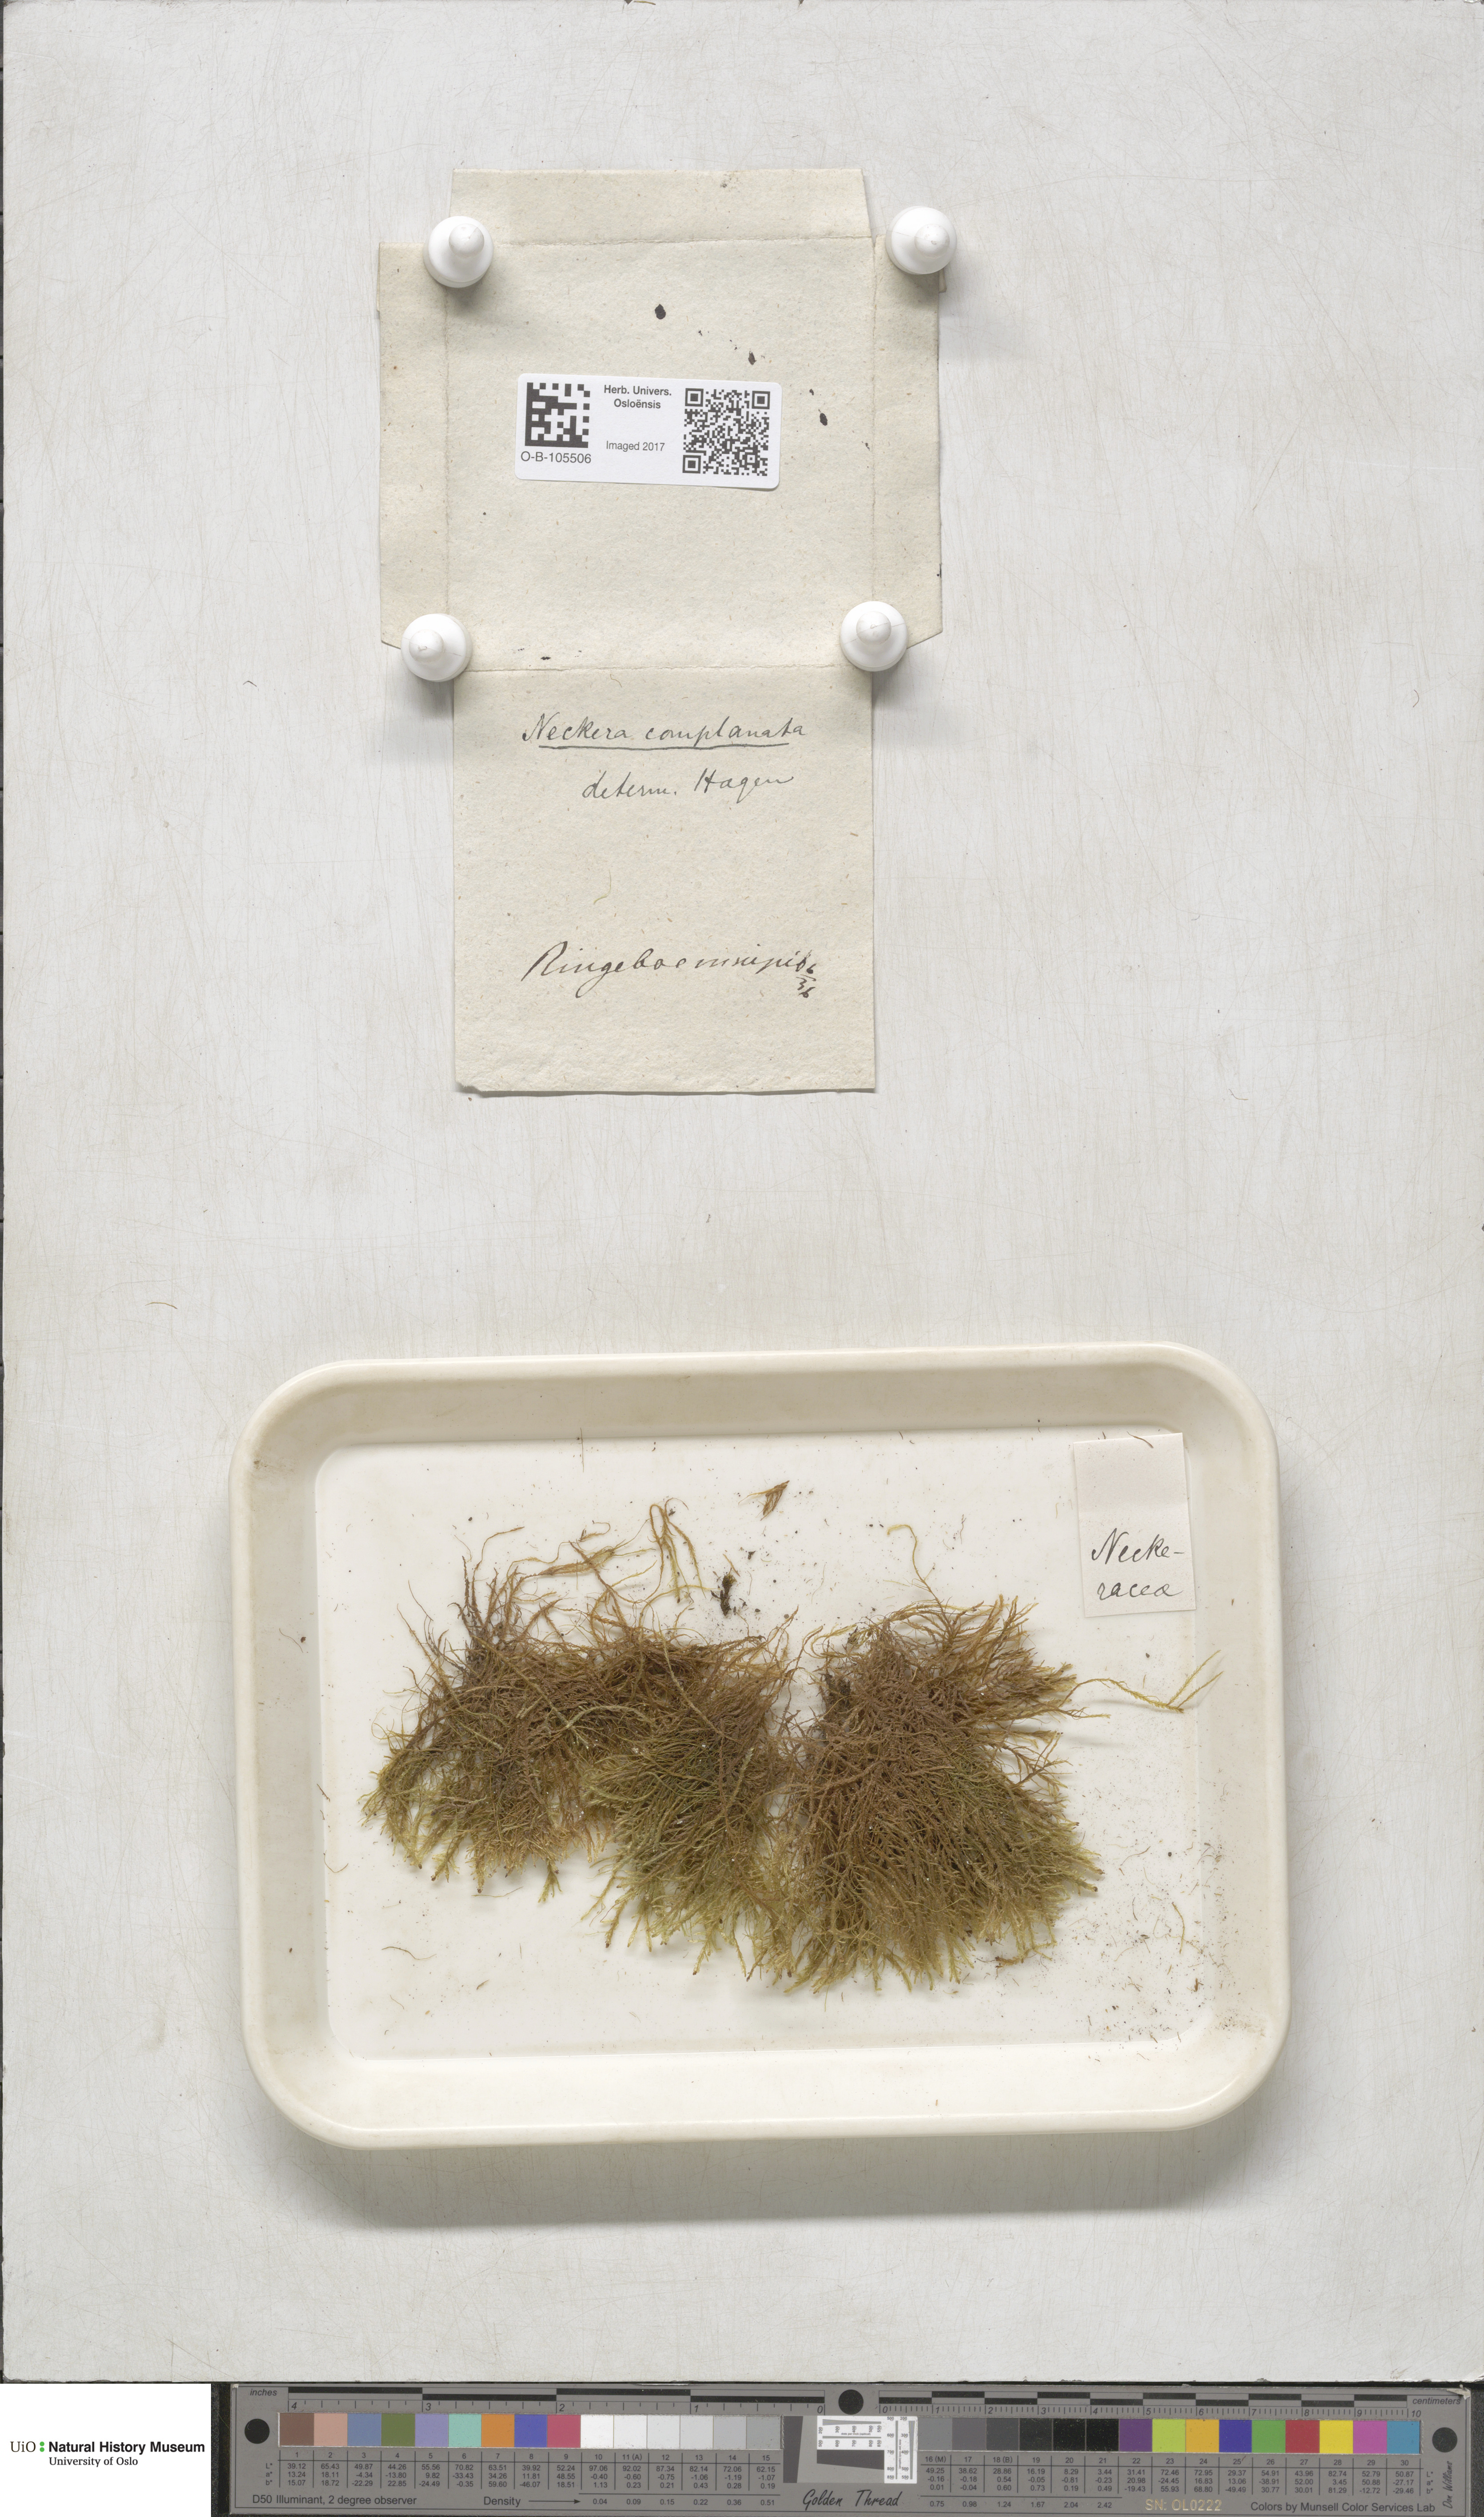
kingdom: Plantae
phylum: Bryophyta
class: Bryopsida
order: Hypnales
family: Neckeraceae
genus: Alleniella
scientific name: Alleniella complanata
